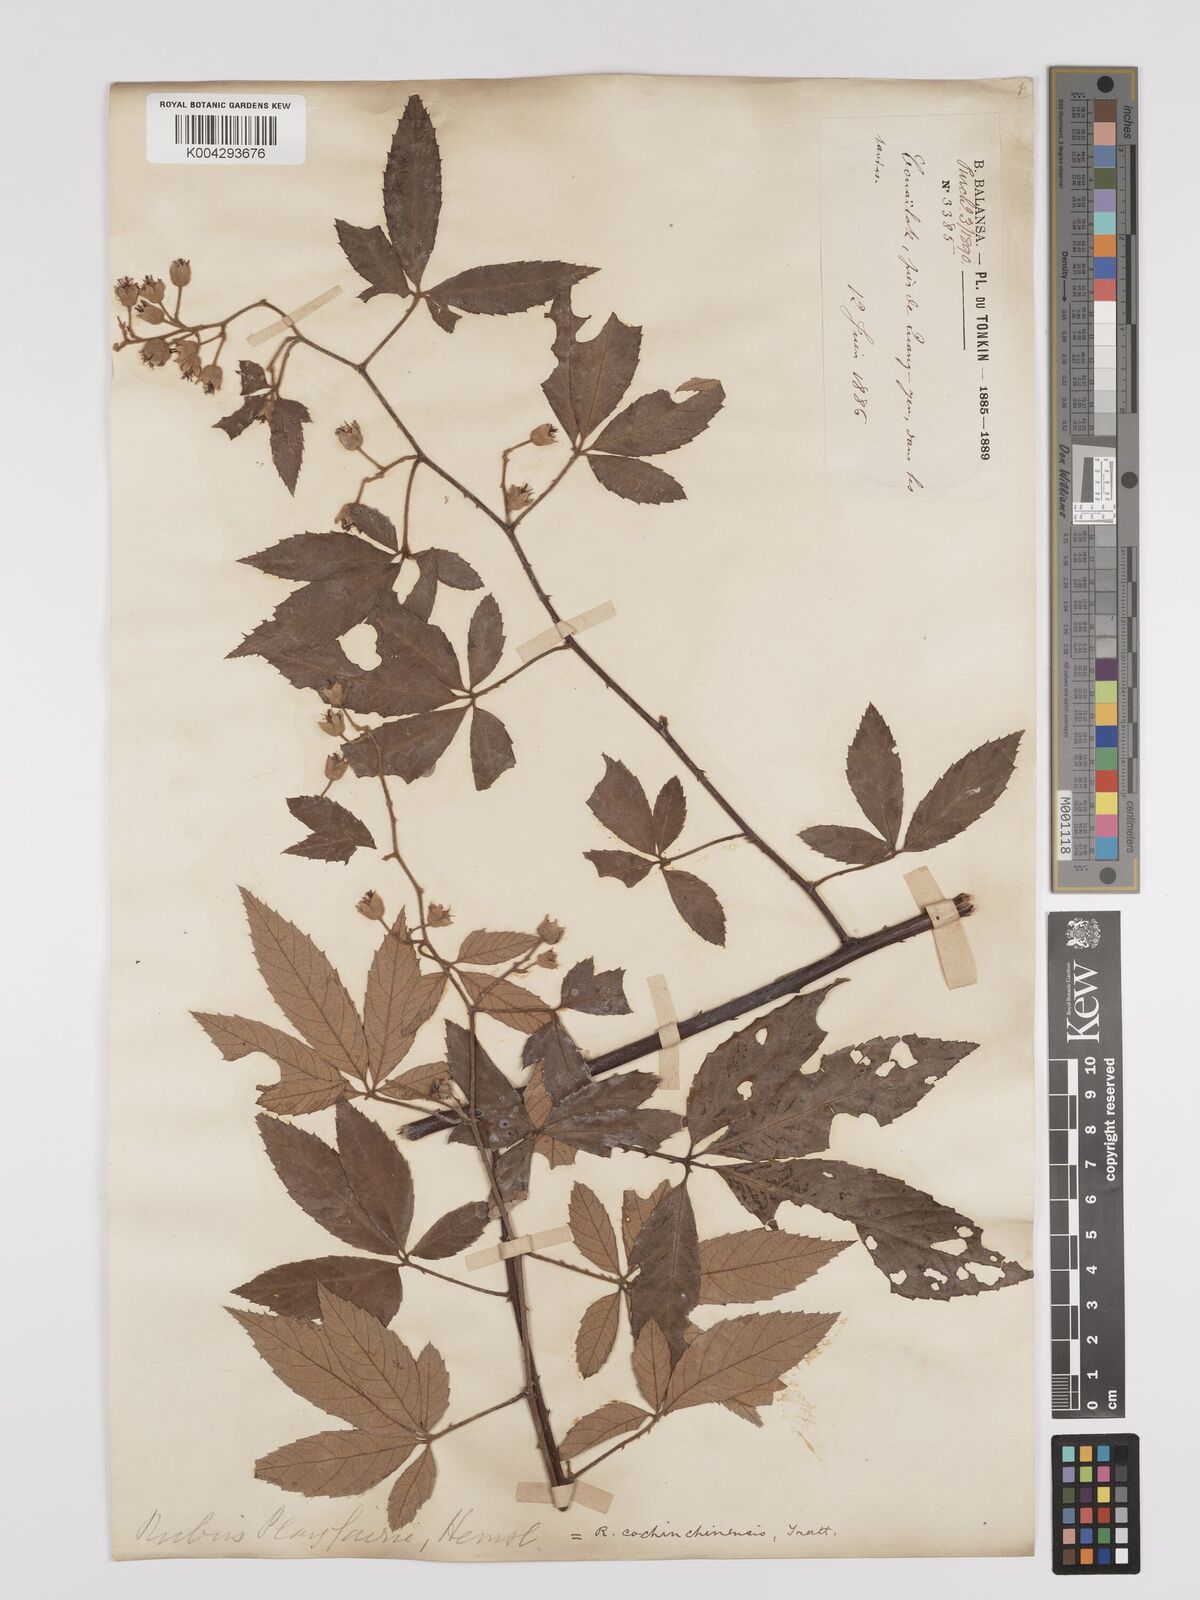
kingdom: Plantae
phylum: Tracheophyta
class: Magnoliopsida
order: Rosales
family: Rosaceae
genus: Rubus
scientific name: Rubus cochinchinensis
